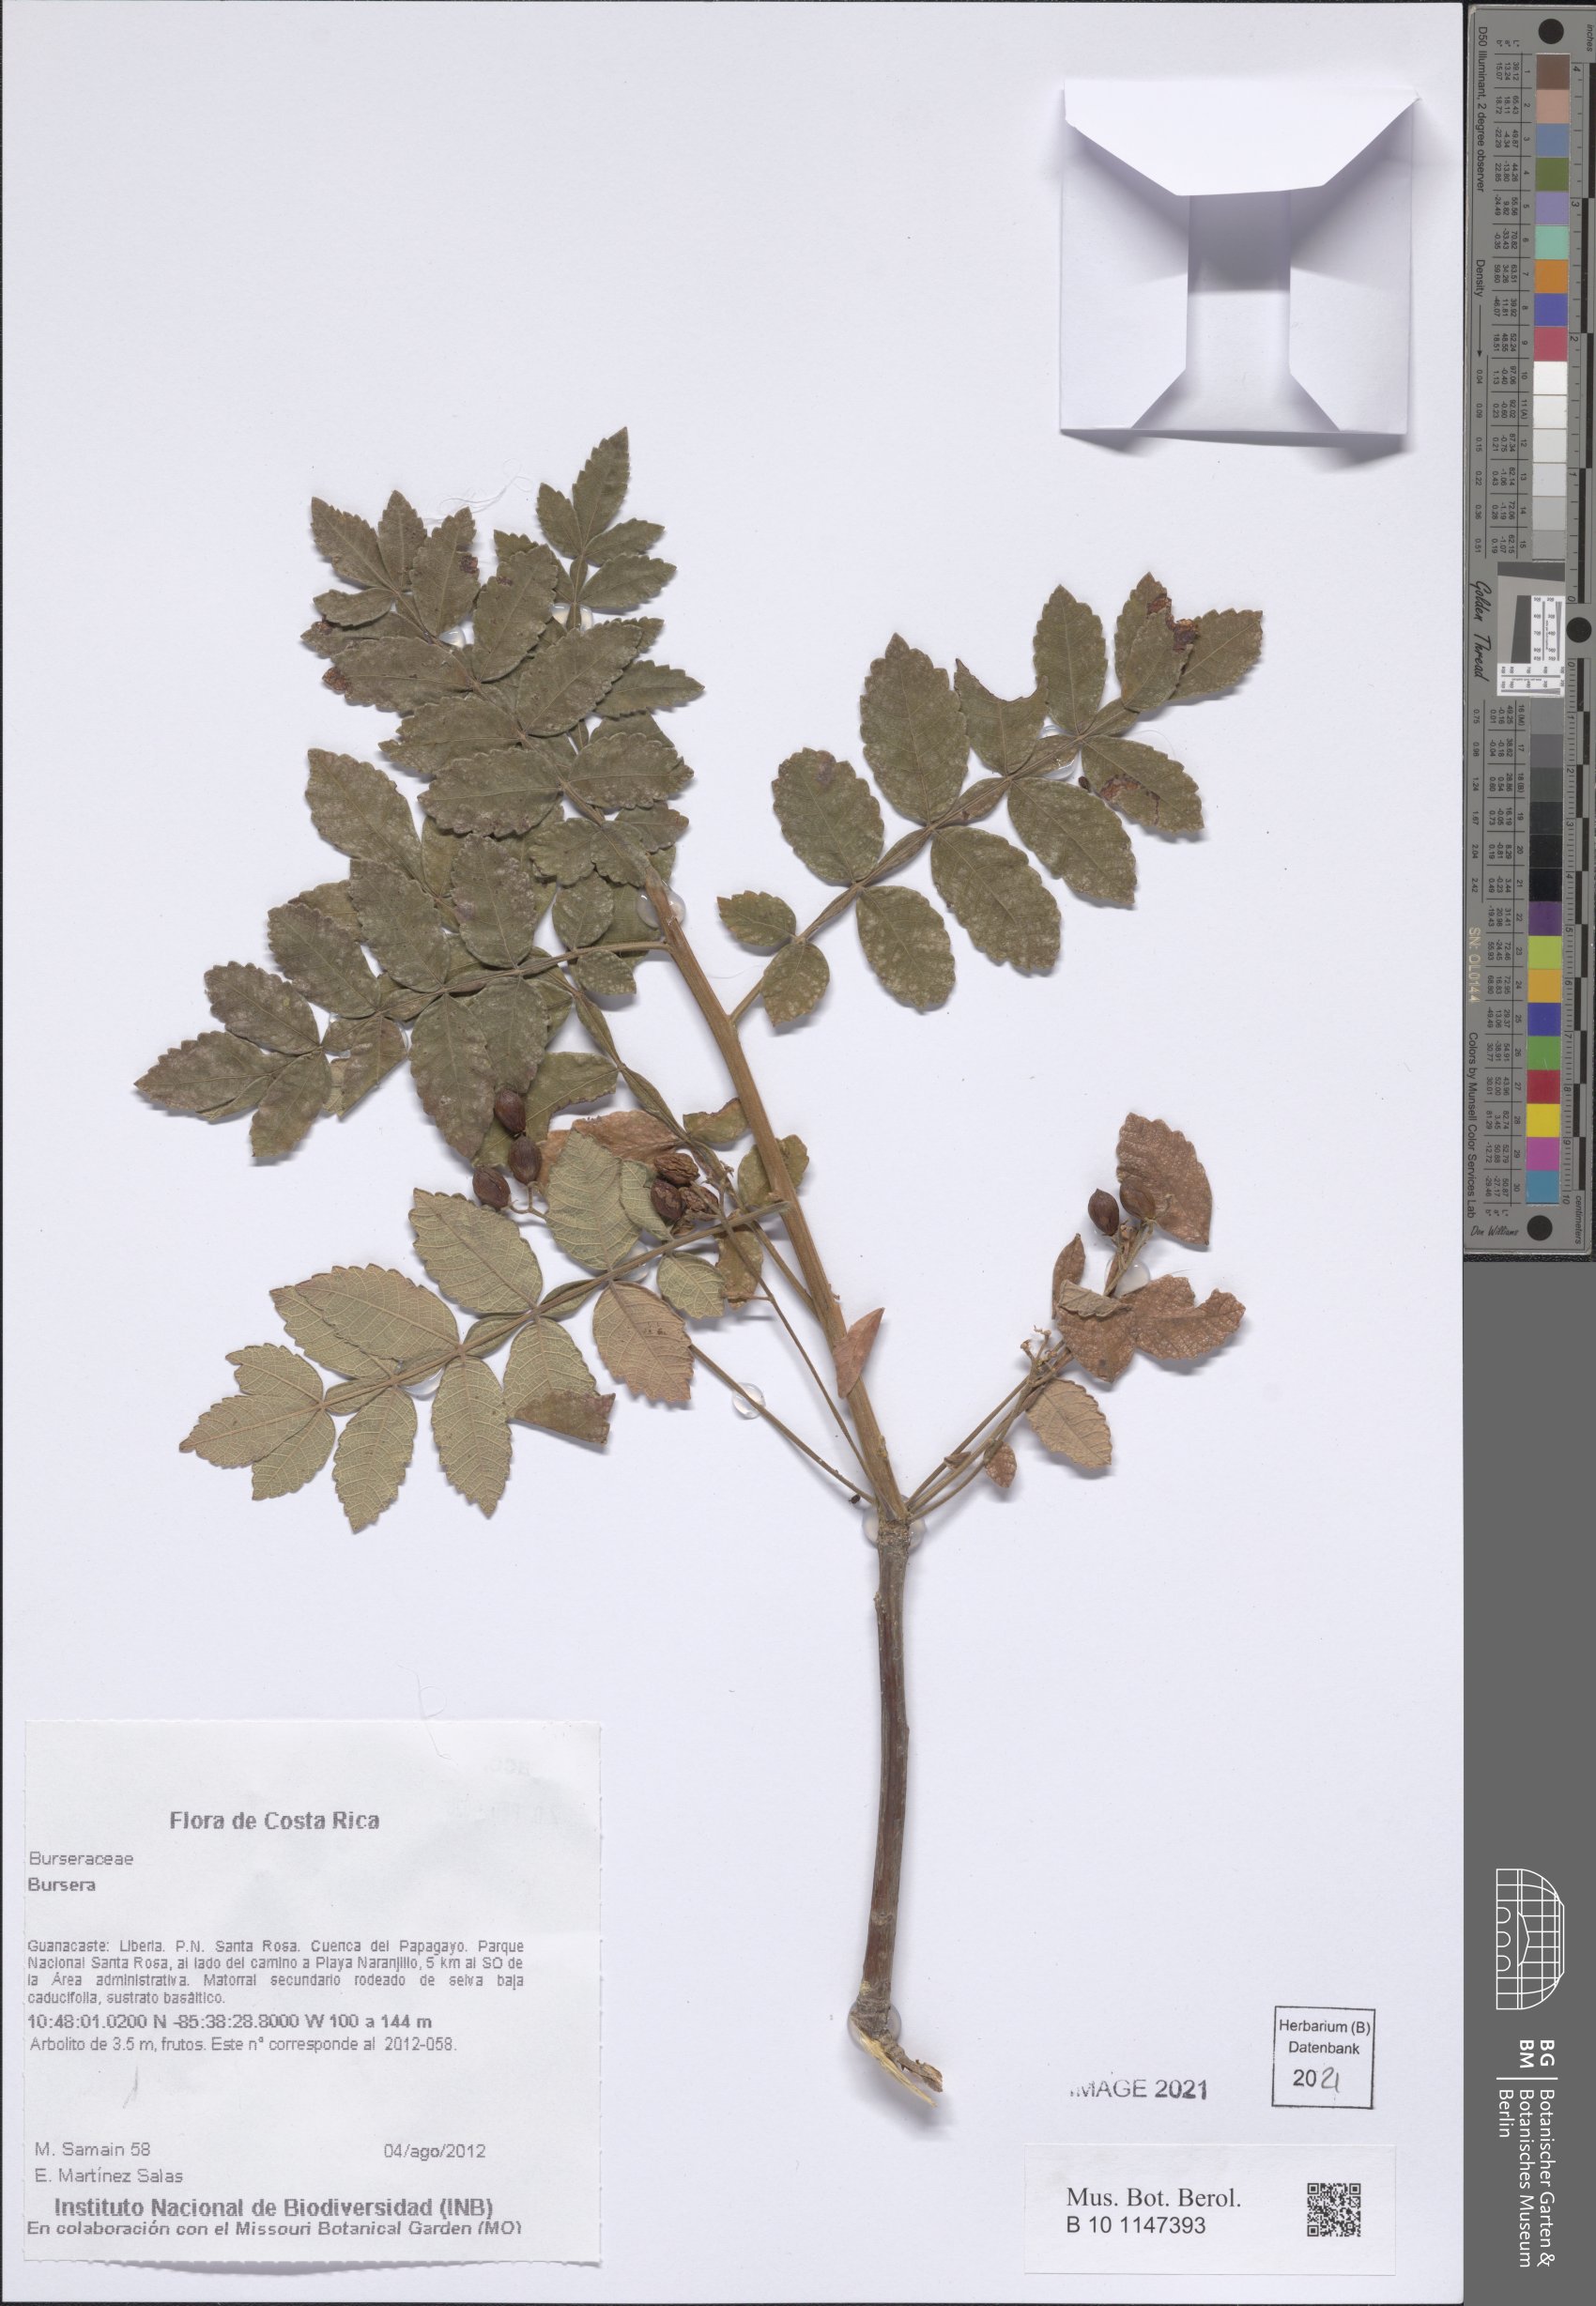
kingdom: Plantae
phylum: Tracheophyta
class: Magnoliopsida
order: Sapindales
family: Burseraceae
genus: Bursera
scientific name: Bursera
